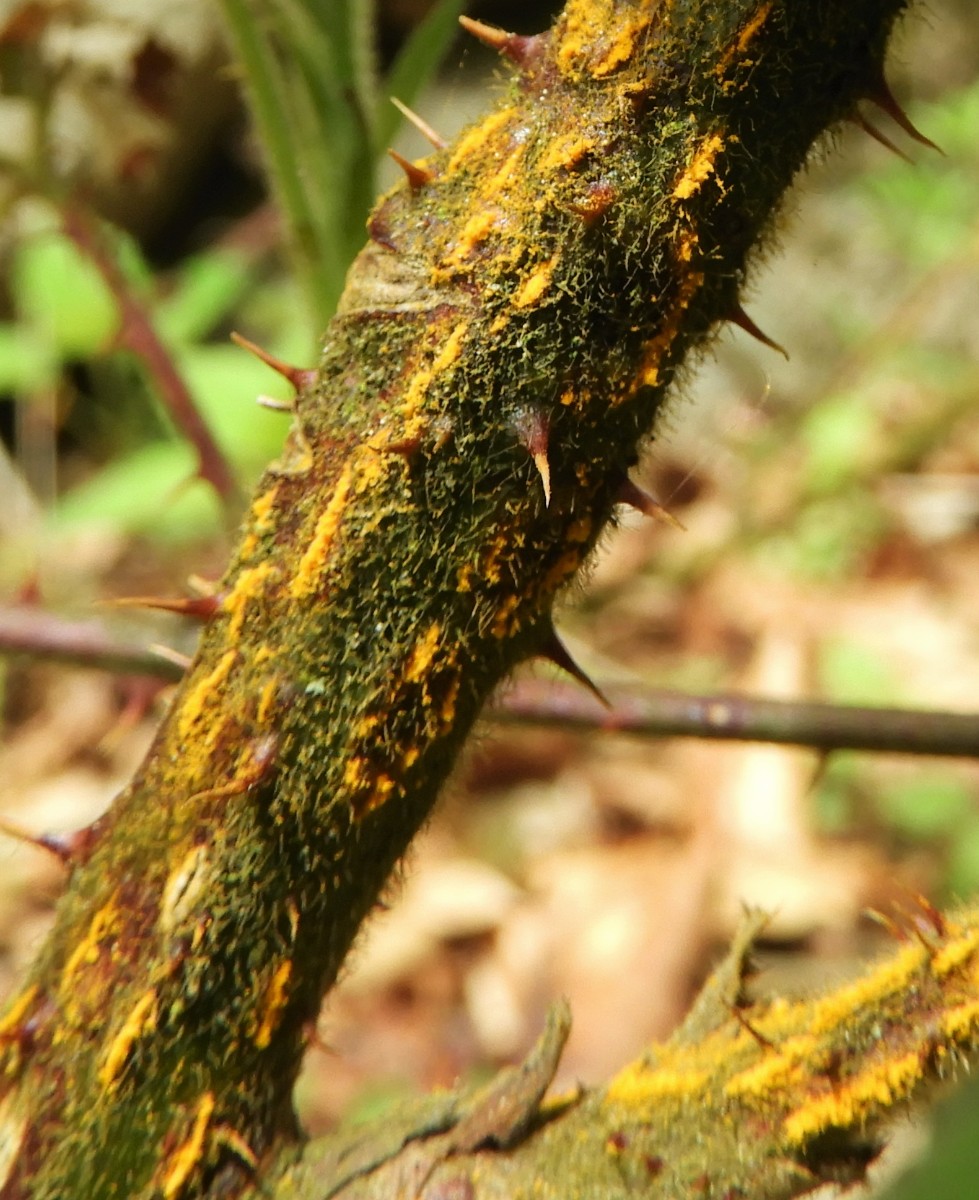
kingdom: Fungi
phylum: Basidiomycota
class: Pucciniomycetes
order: Pucciniales
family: Phragmidiaceae
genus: Kuehneola
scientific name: Kuehneola uredinis
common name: klynger-kædecellerust
